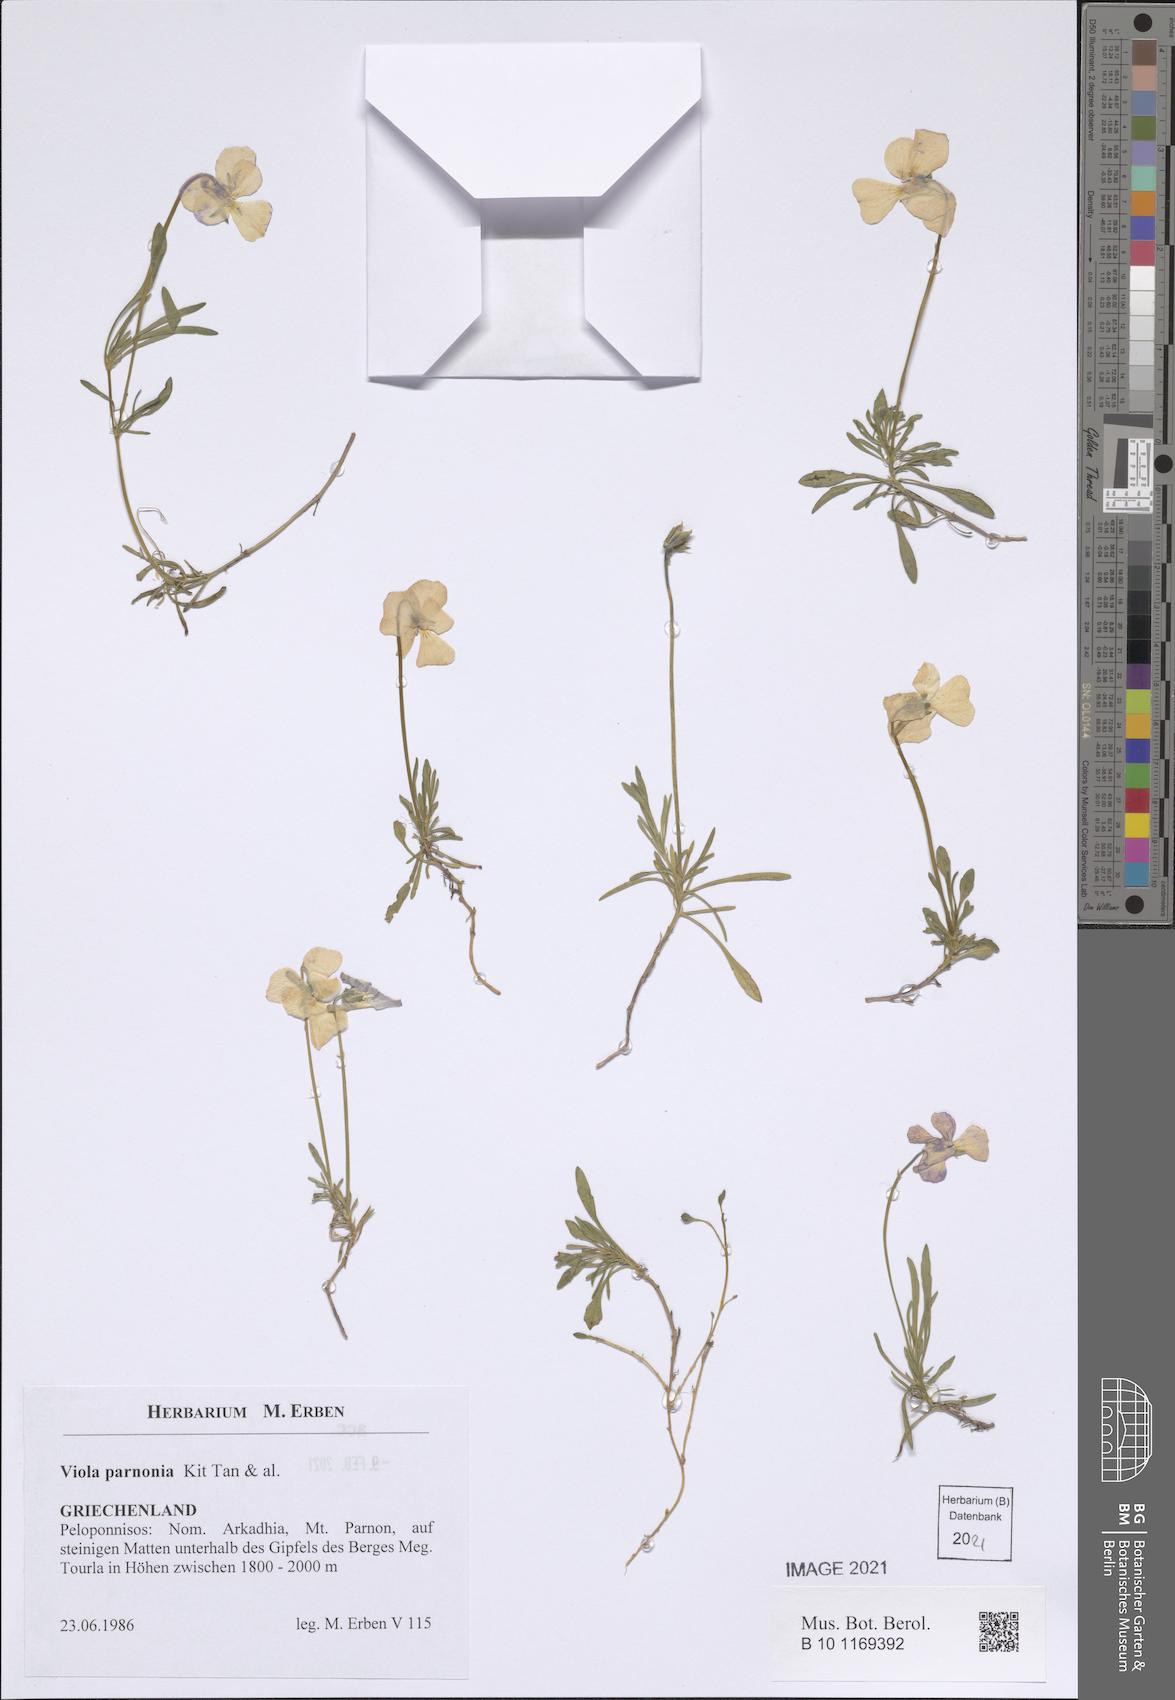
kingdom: Plantae
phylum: Tracheophyta
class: Magnoliopsida
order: Malpighiales
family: Violaceae
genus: Viola
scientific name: Viola parnonia
